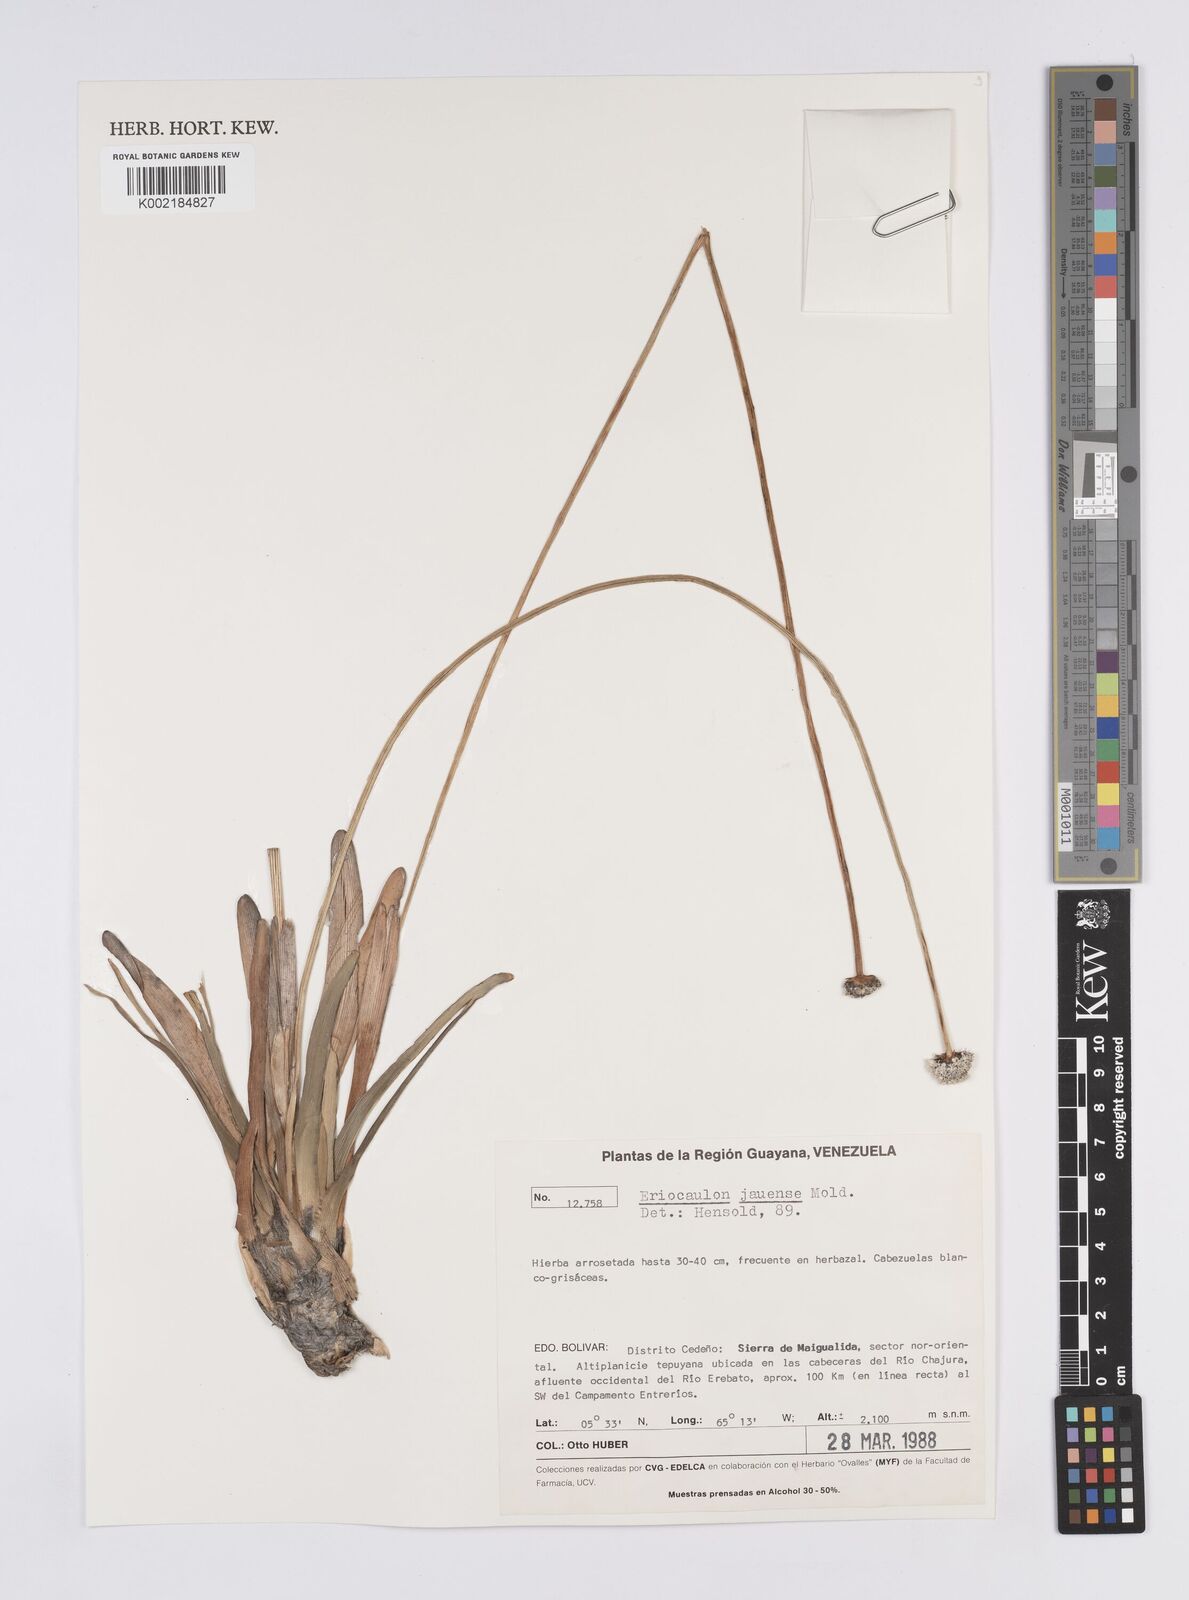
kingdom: Plantae
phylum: Tracheophyta
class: Liliopsida
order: Poales
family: Eriocaulaceae
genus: Eriocaulon
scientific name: Eriocaulon jauense
